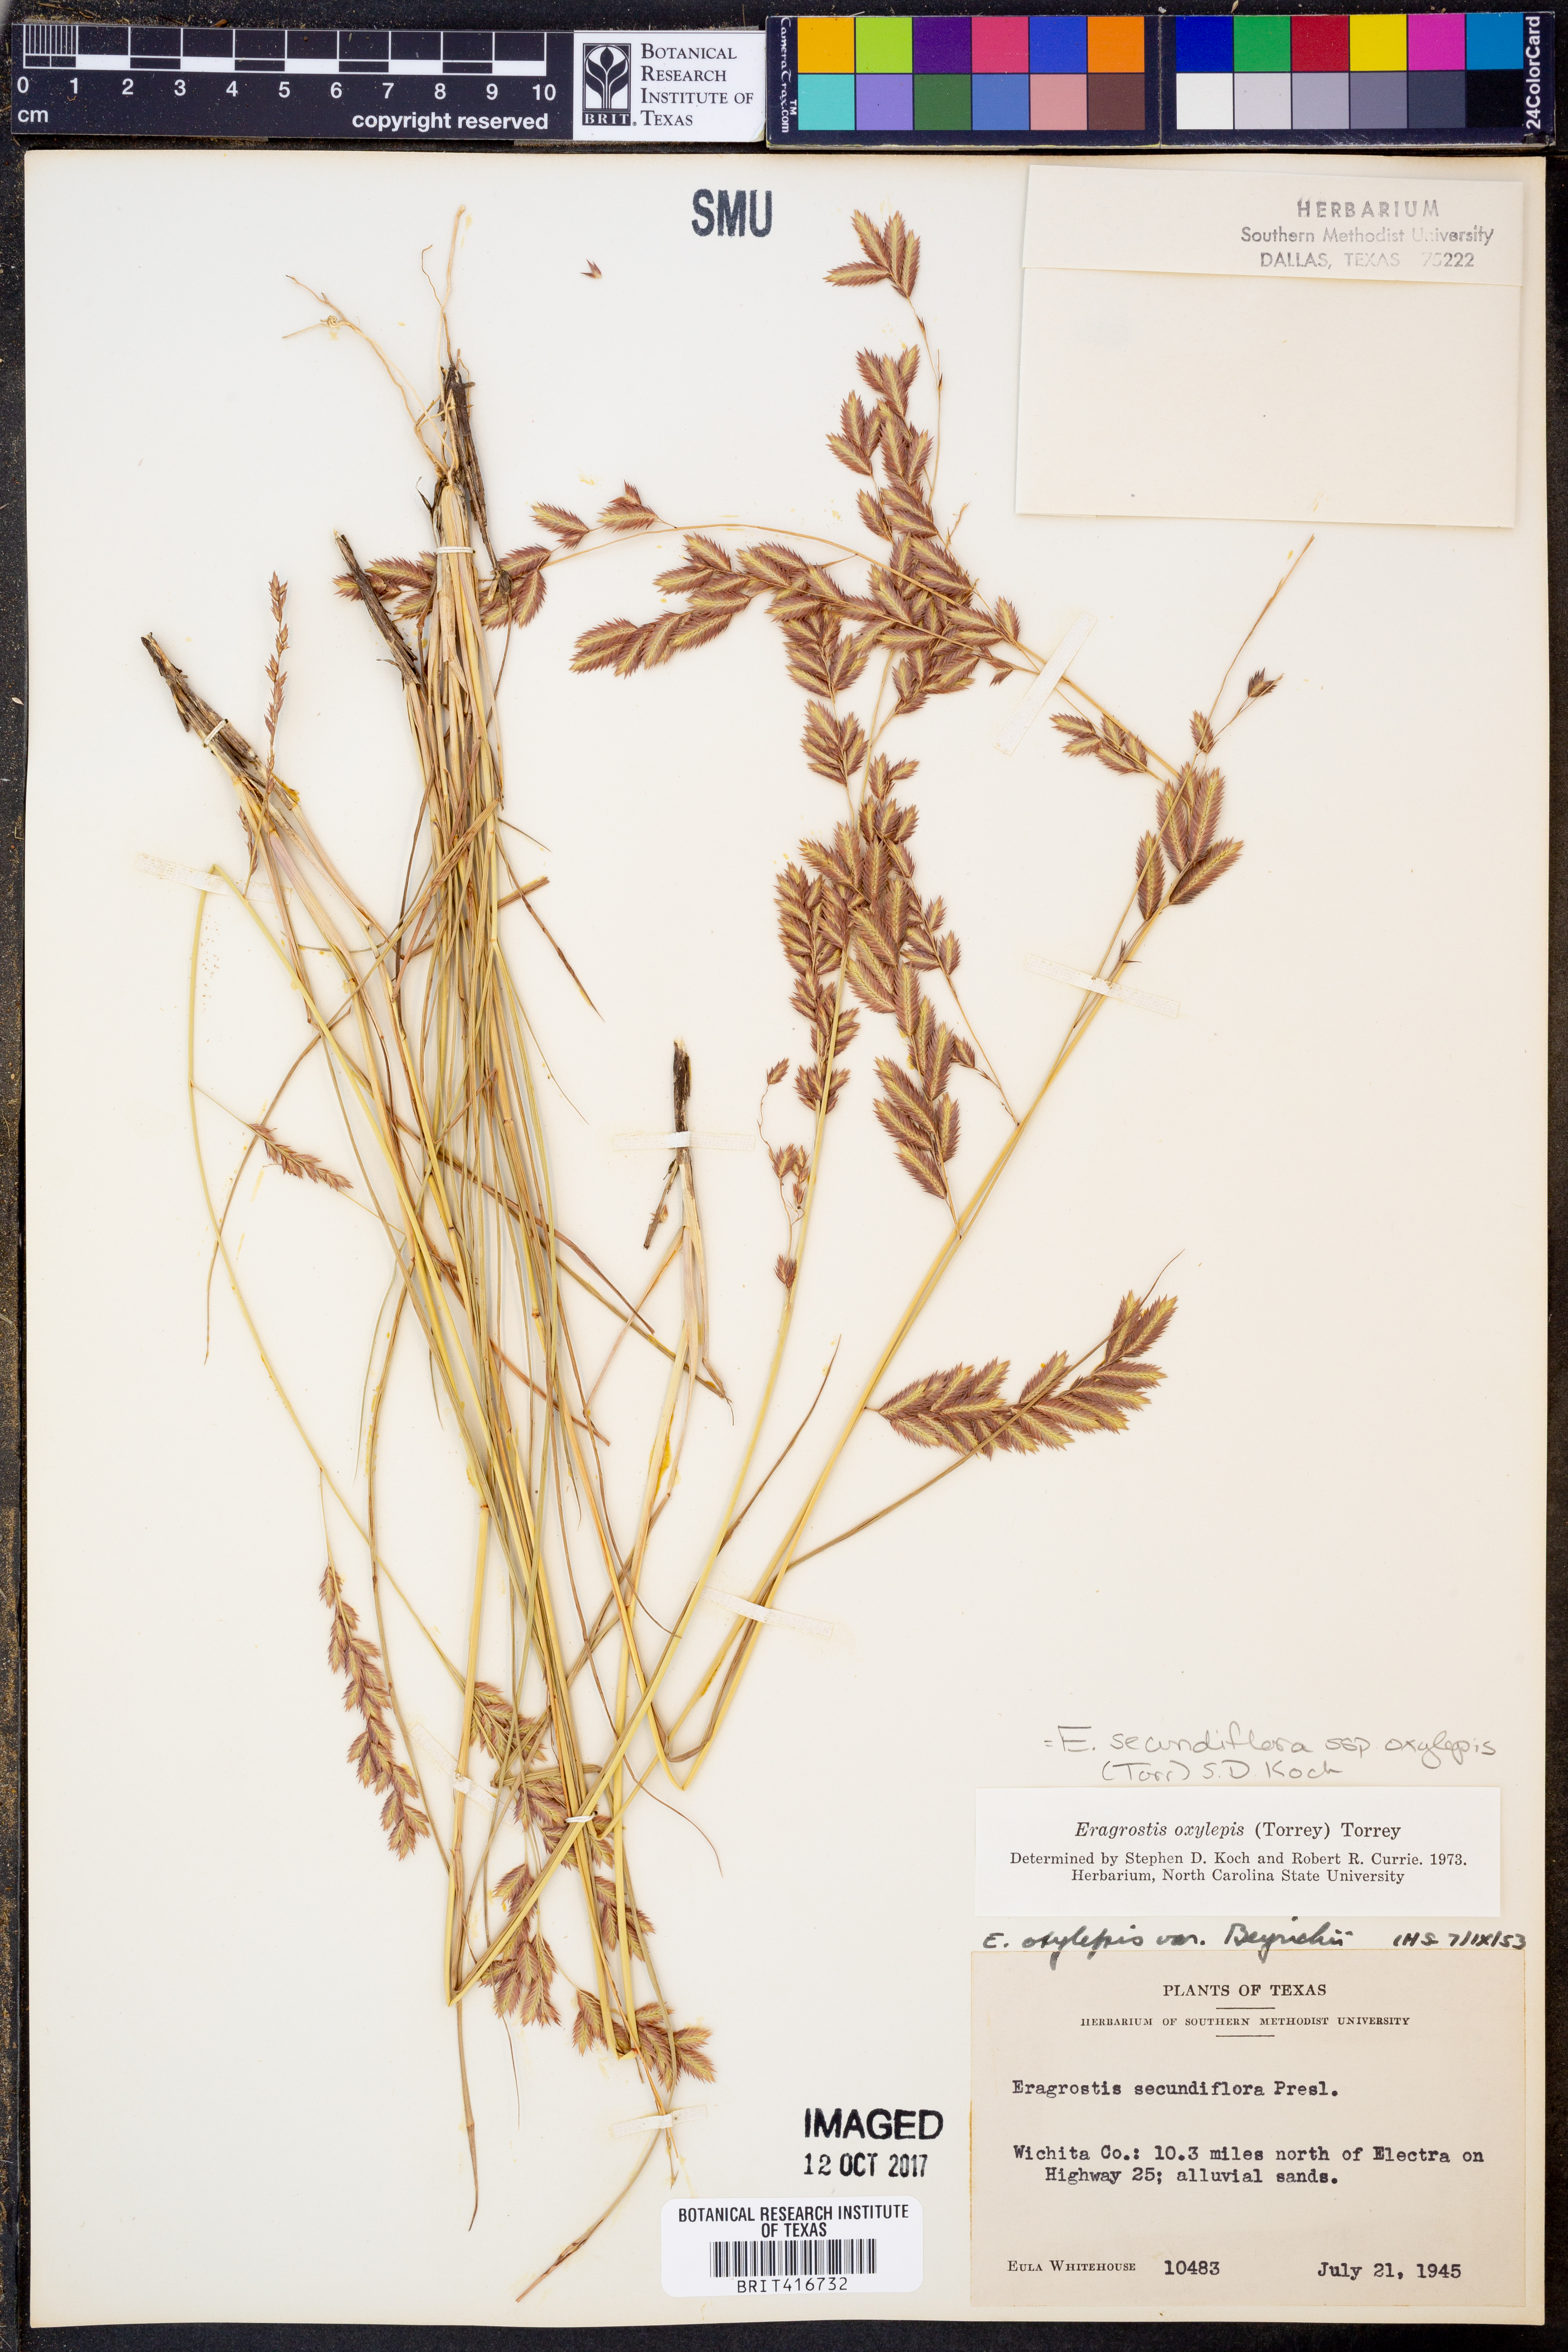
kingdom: Plantae
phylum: Tracheophyta
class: Liliopsida
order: Poales
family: Poaceae
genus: Eragrostis
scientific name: Eragrostis secundiflora
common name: Red love grass
